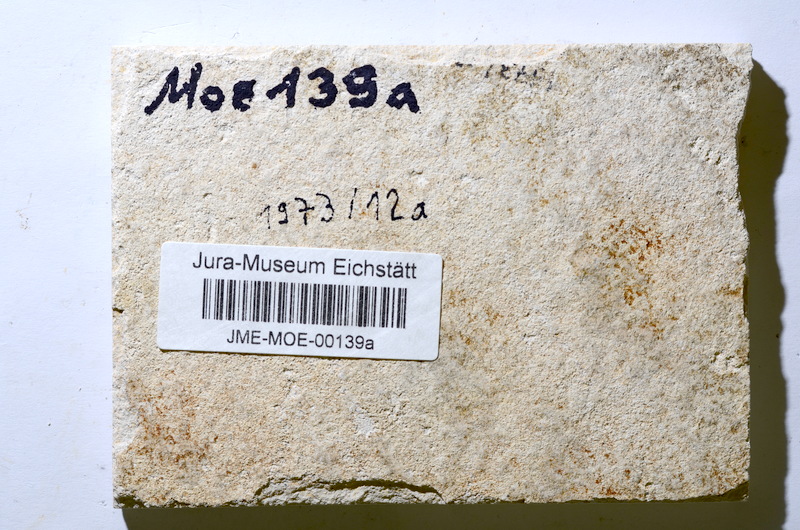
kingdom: Animalia
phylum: Chordata
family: Ascalaboidae
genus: Tharsis
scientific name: Tharsis
